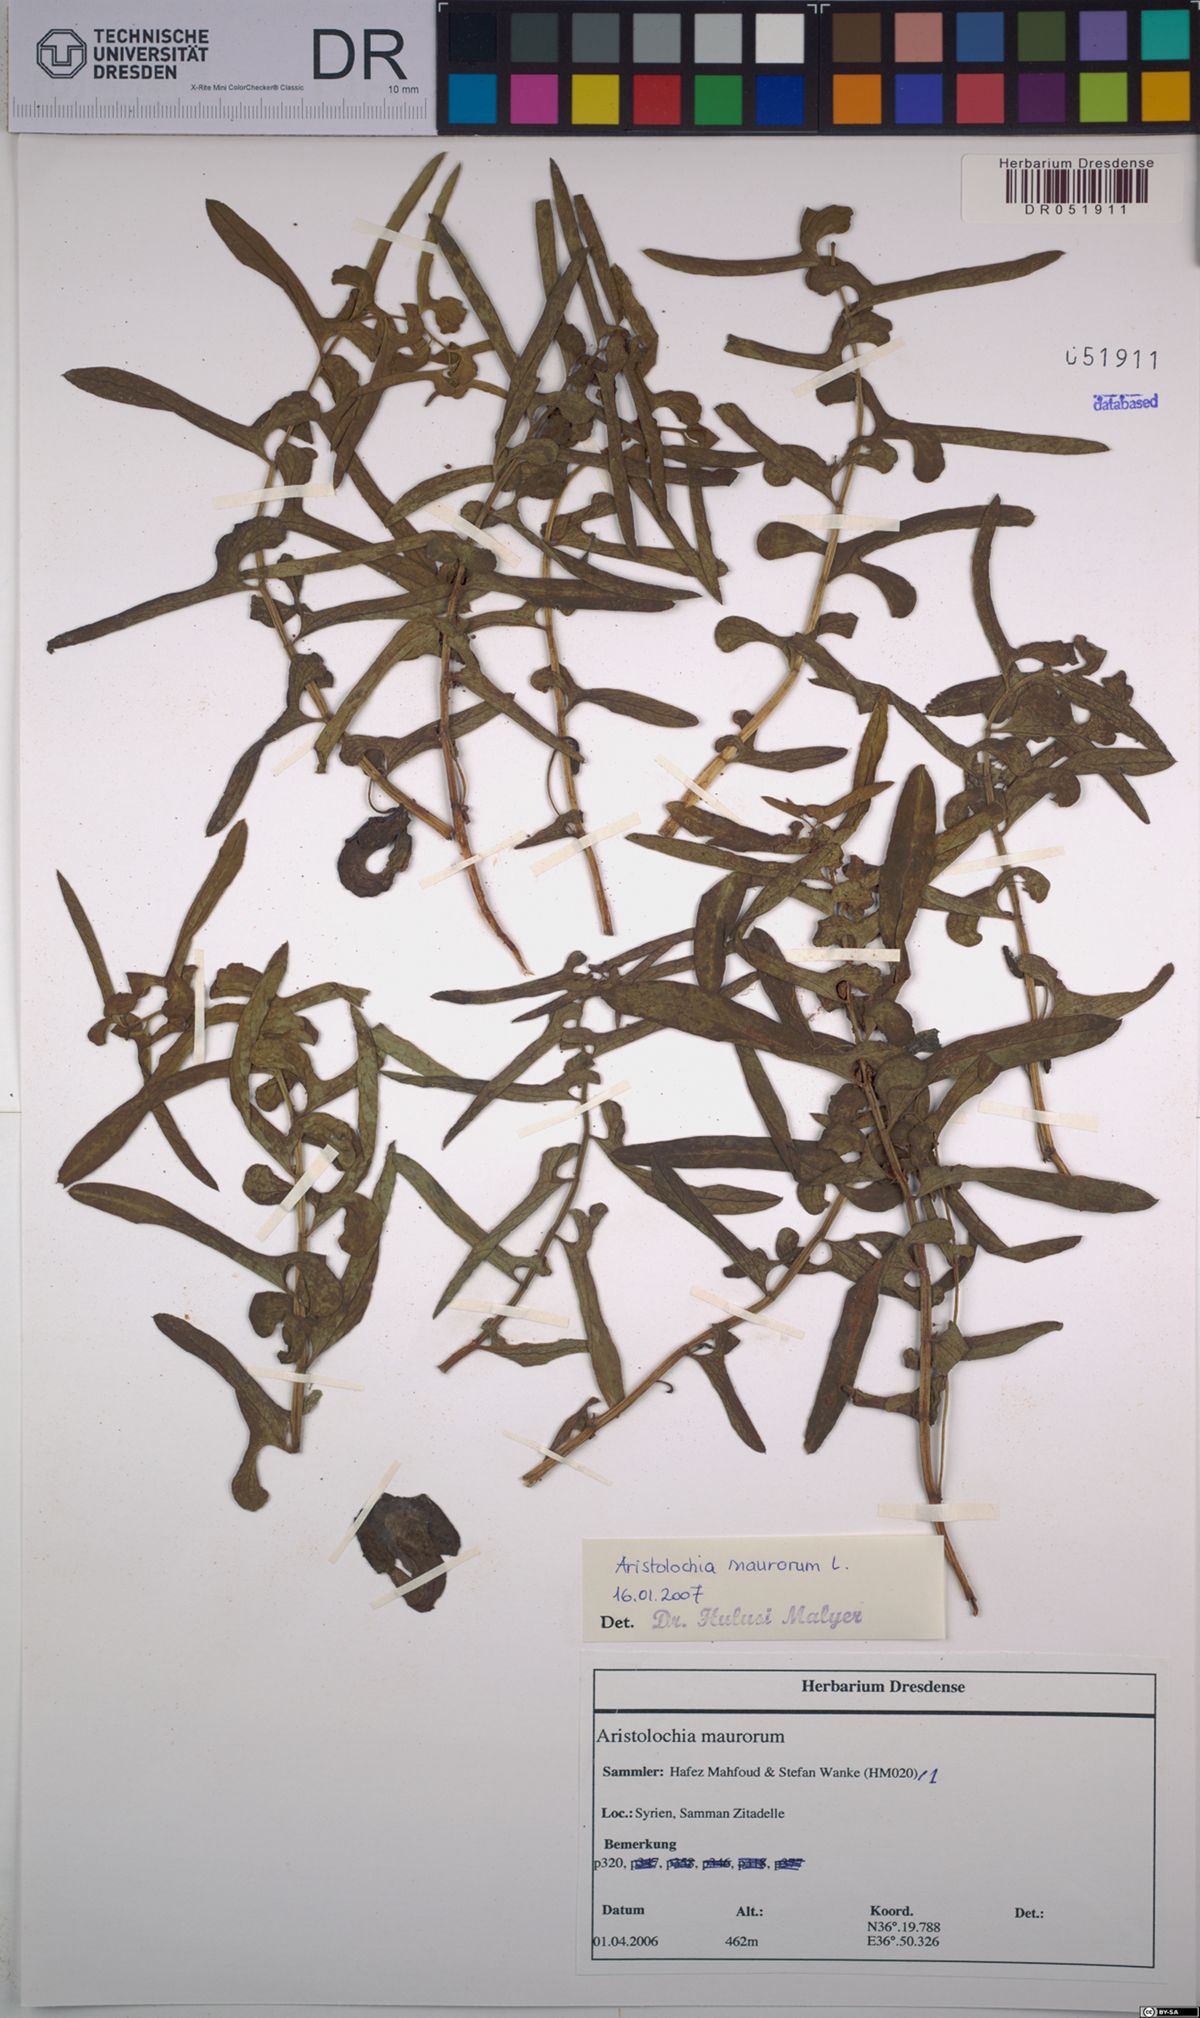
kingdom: Plantae
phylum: Tracheophyta
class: Magnoliopsida
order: Piperales
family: Aristolochiaceae
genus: Aristolochia
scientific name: Aristolochia maurorum
